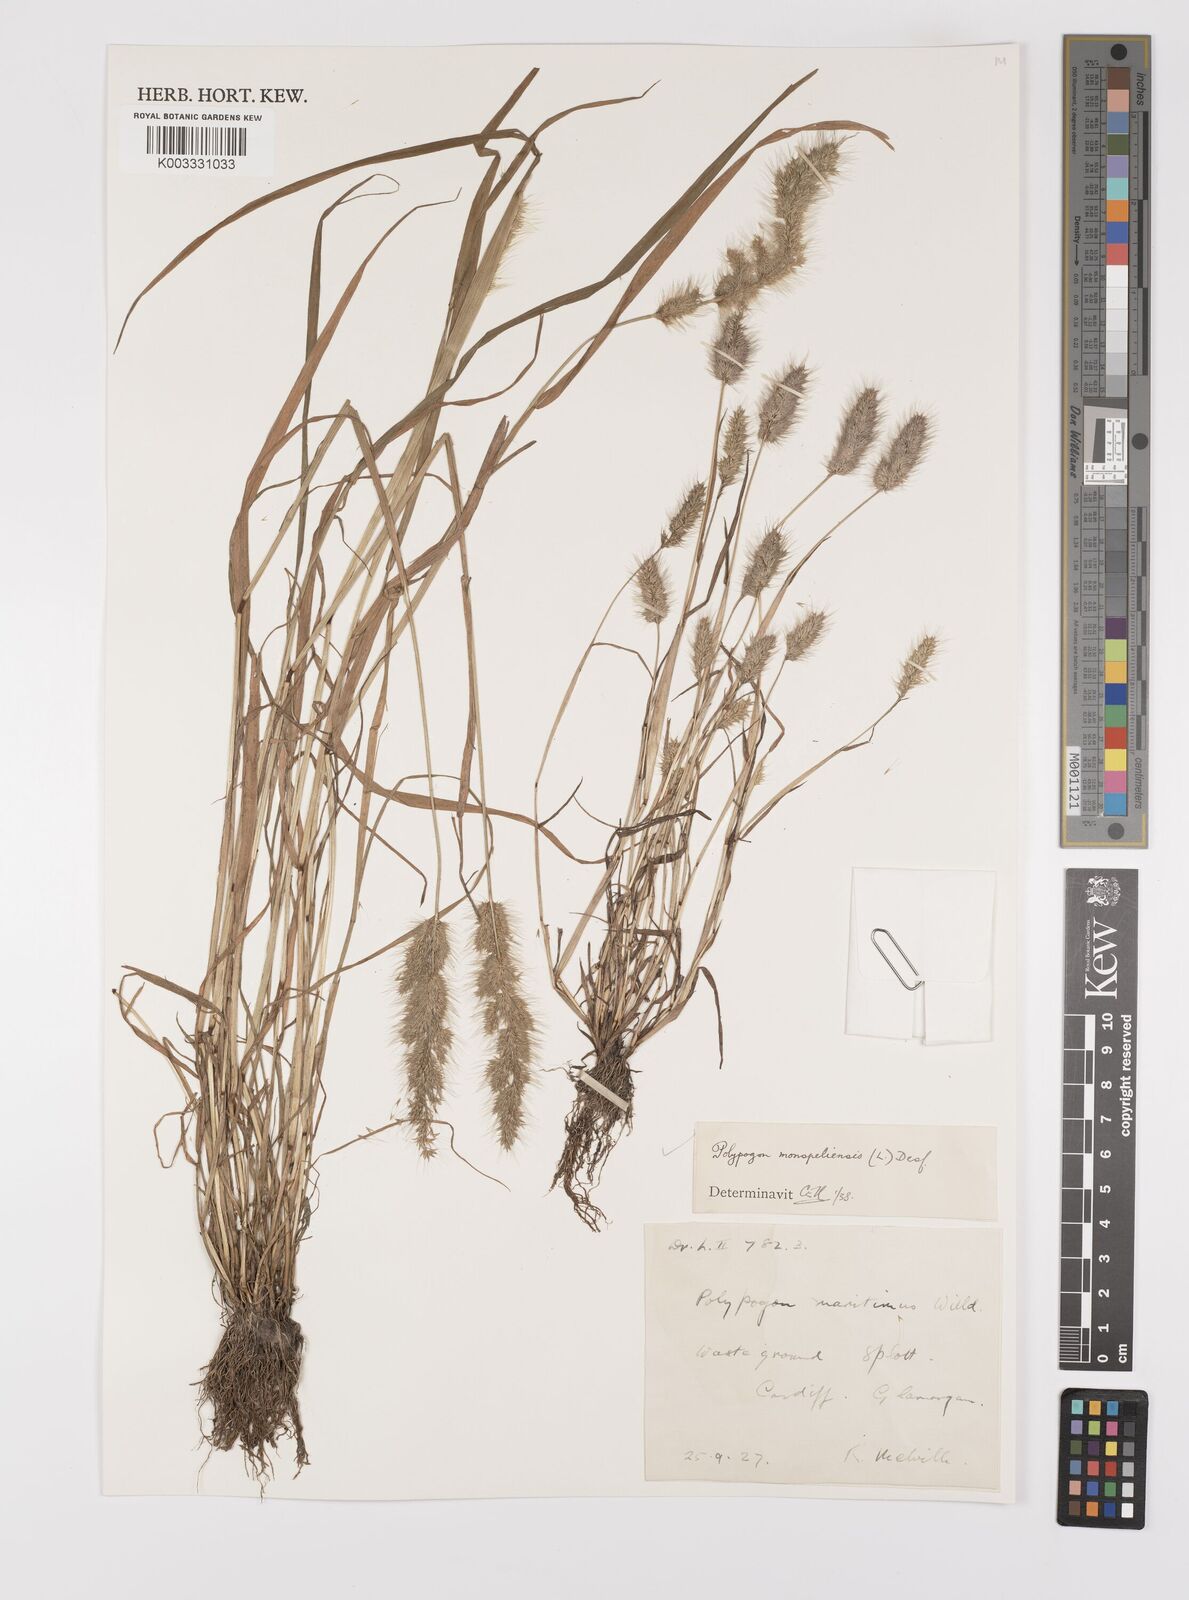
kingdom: Plantae
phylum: Tracheophyta
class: Liliopsida
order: Poales
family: Poaceae
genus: Polypogon
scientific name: Polypogon monspeliensis
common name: Annual rabbitsfoot grass
